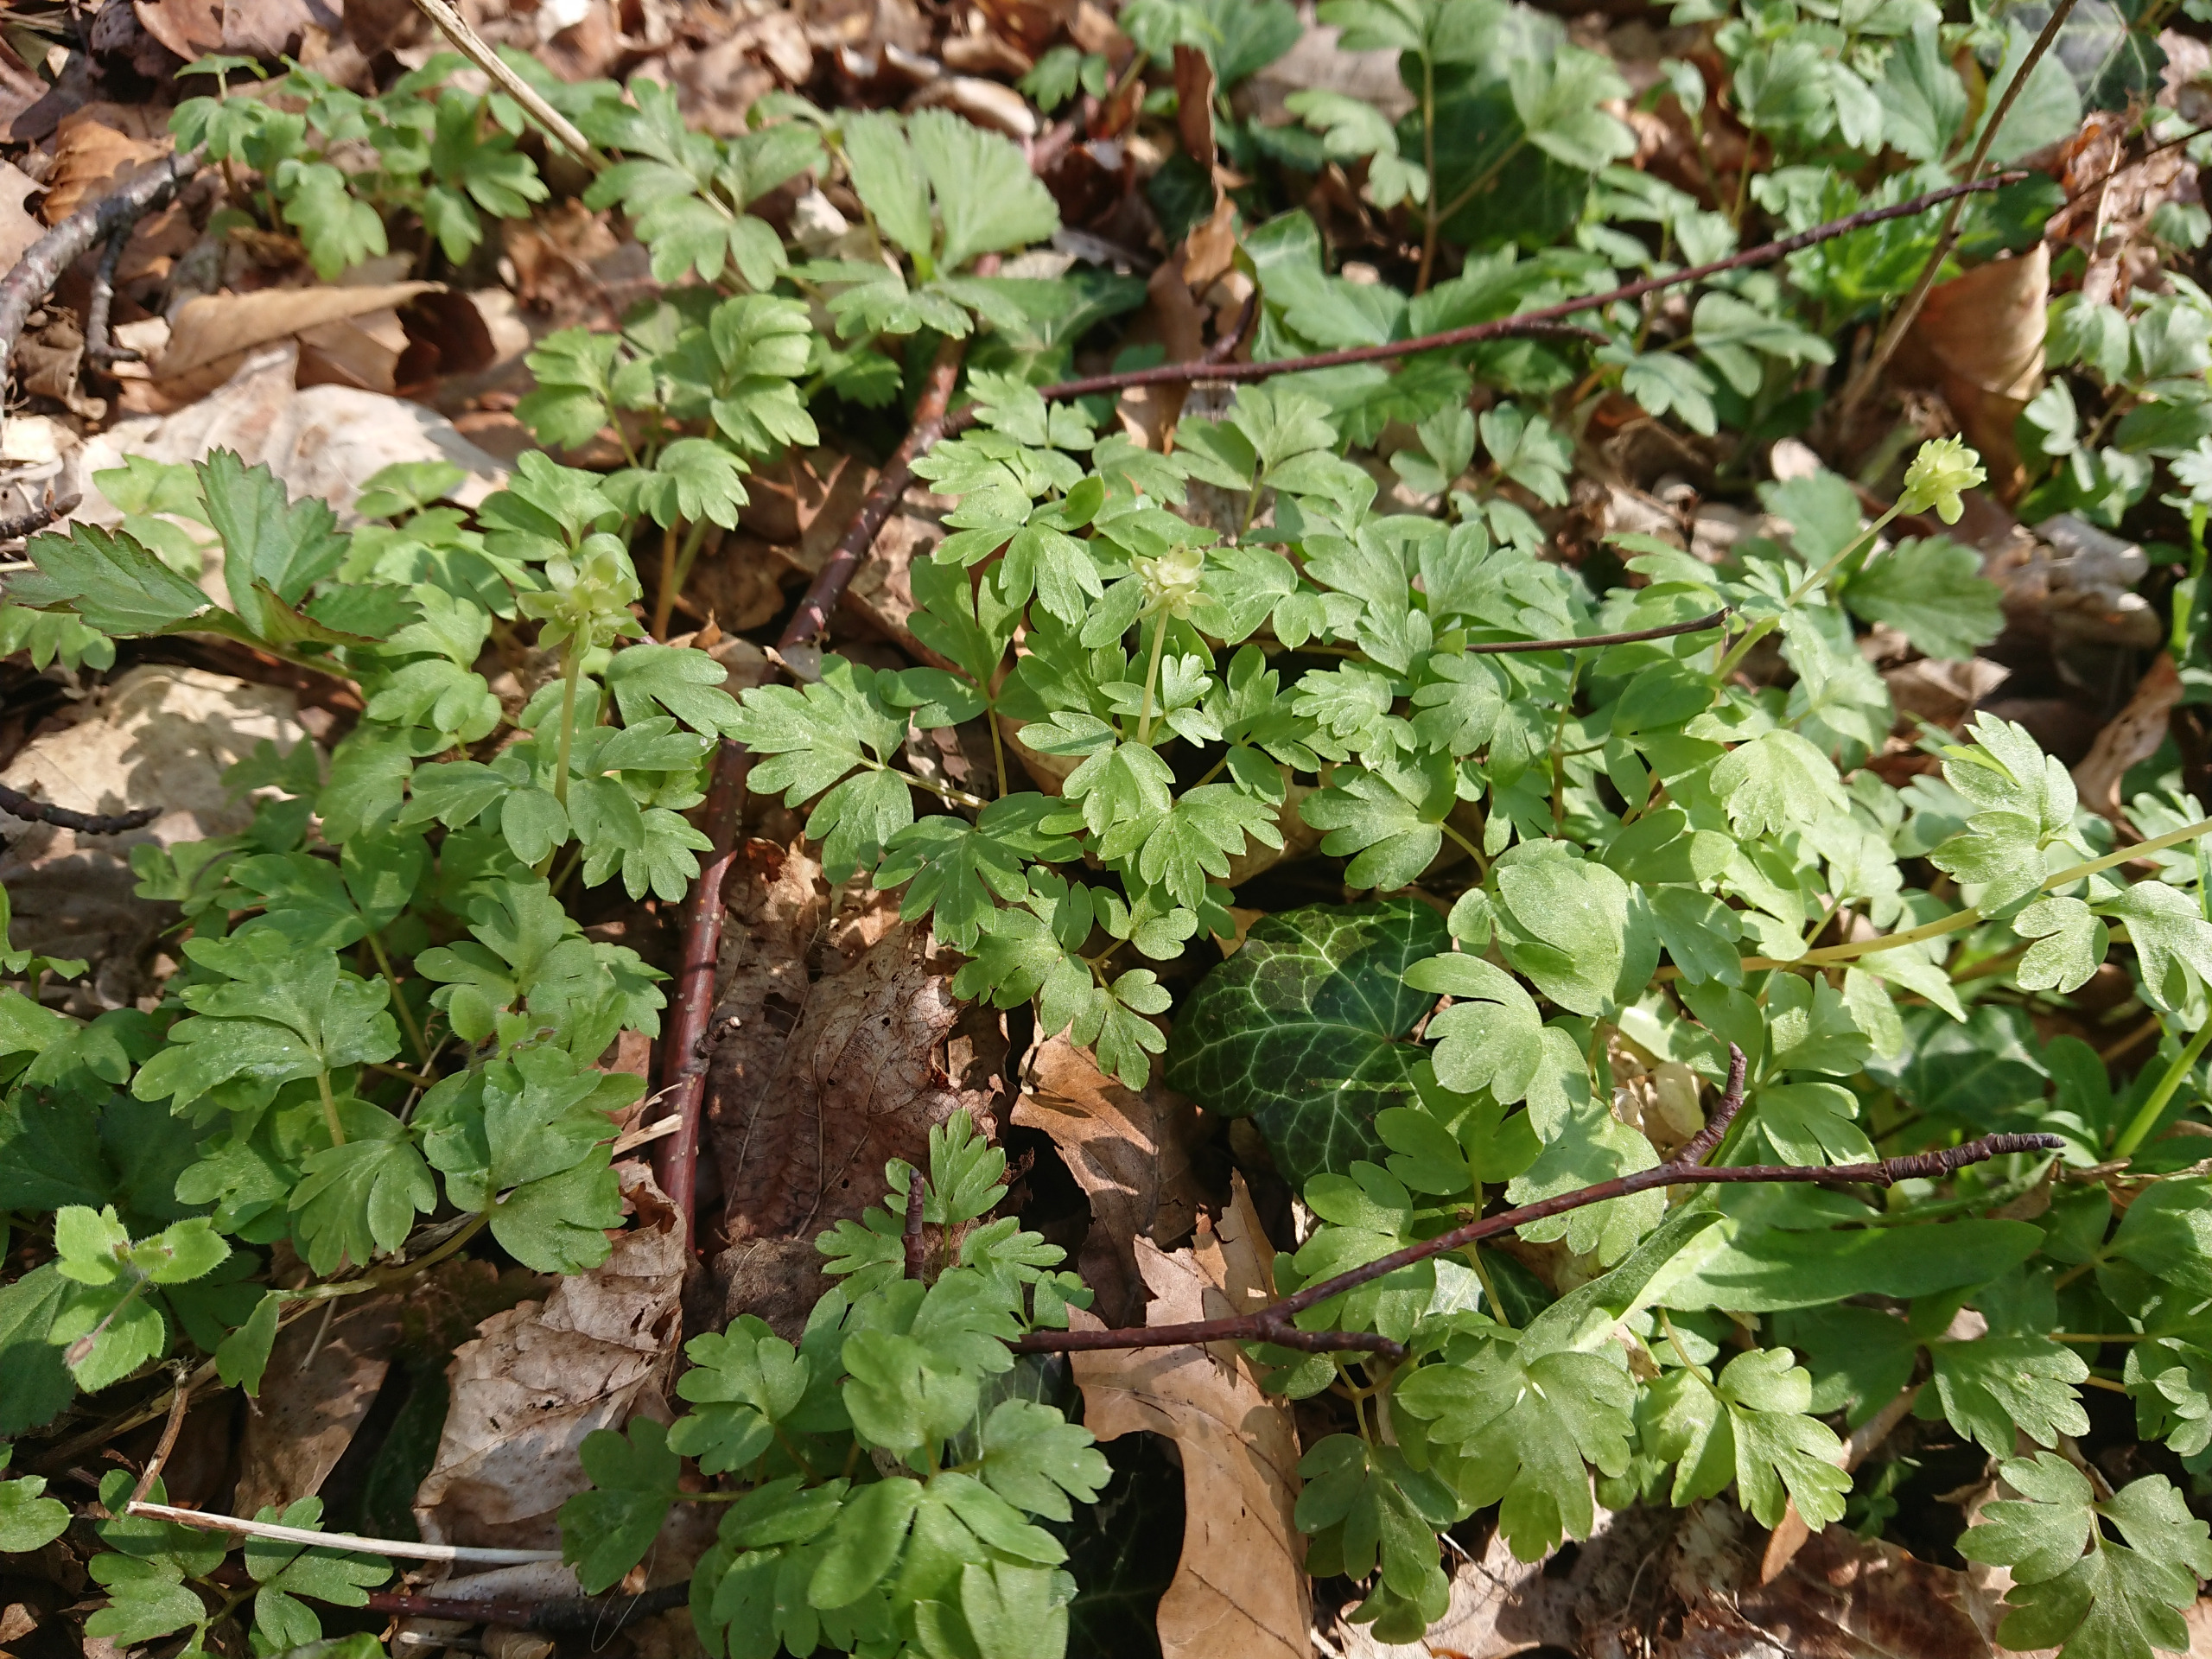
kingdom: Plantae
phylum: Tracheophyta
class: Magnoliopsida
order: Dipsacales
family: Viburnaceae
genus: Adoxa
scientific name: Adoxa moschatellina
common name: Desmerurt
